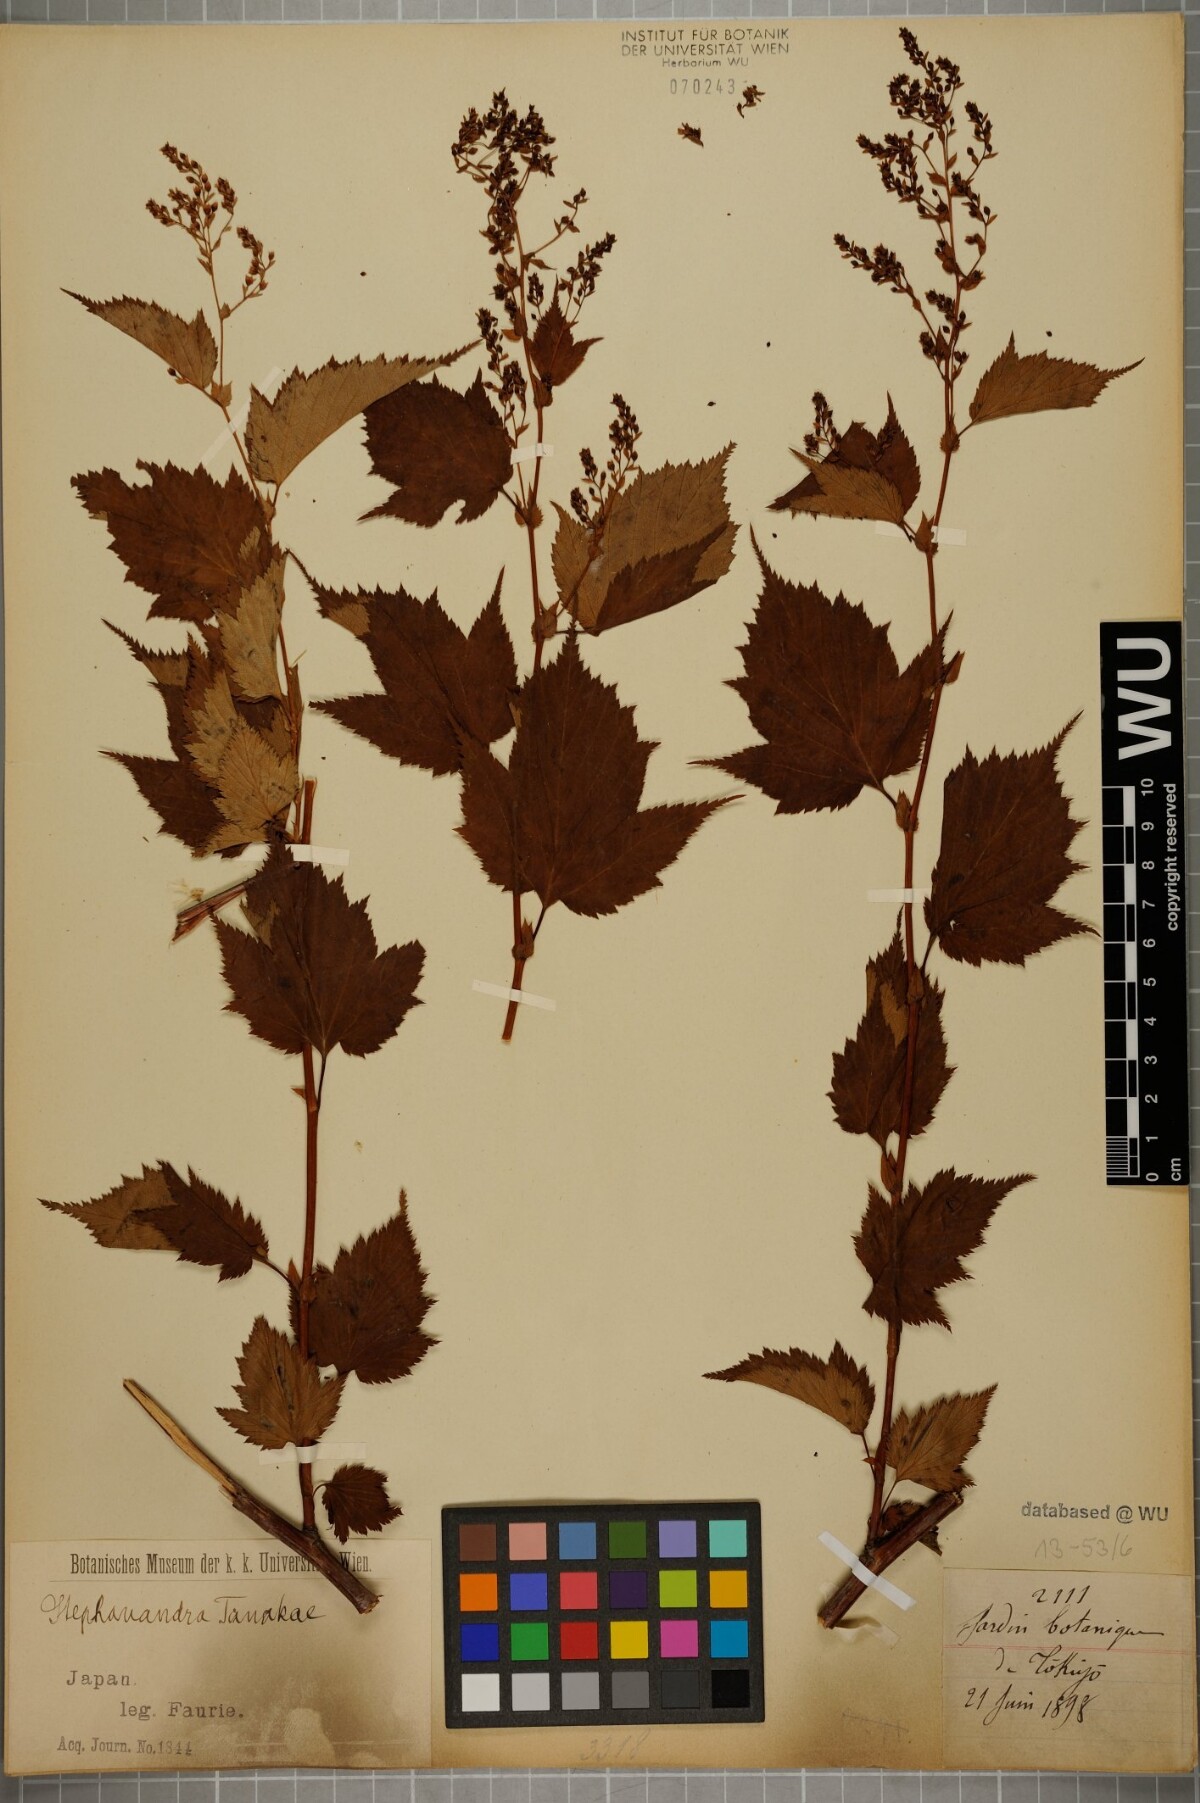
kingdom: Plantae
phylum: Tracheophyta
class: Magnoliopsida
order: Rosales
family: Rosaceae
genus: Neillia
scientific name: Neillia tanakae
